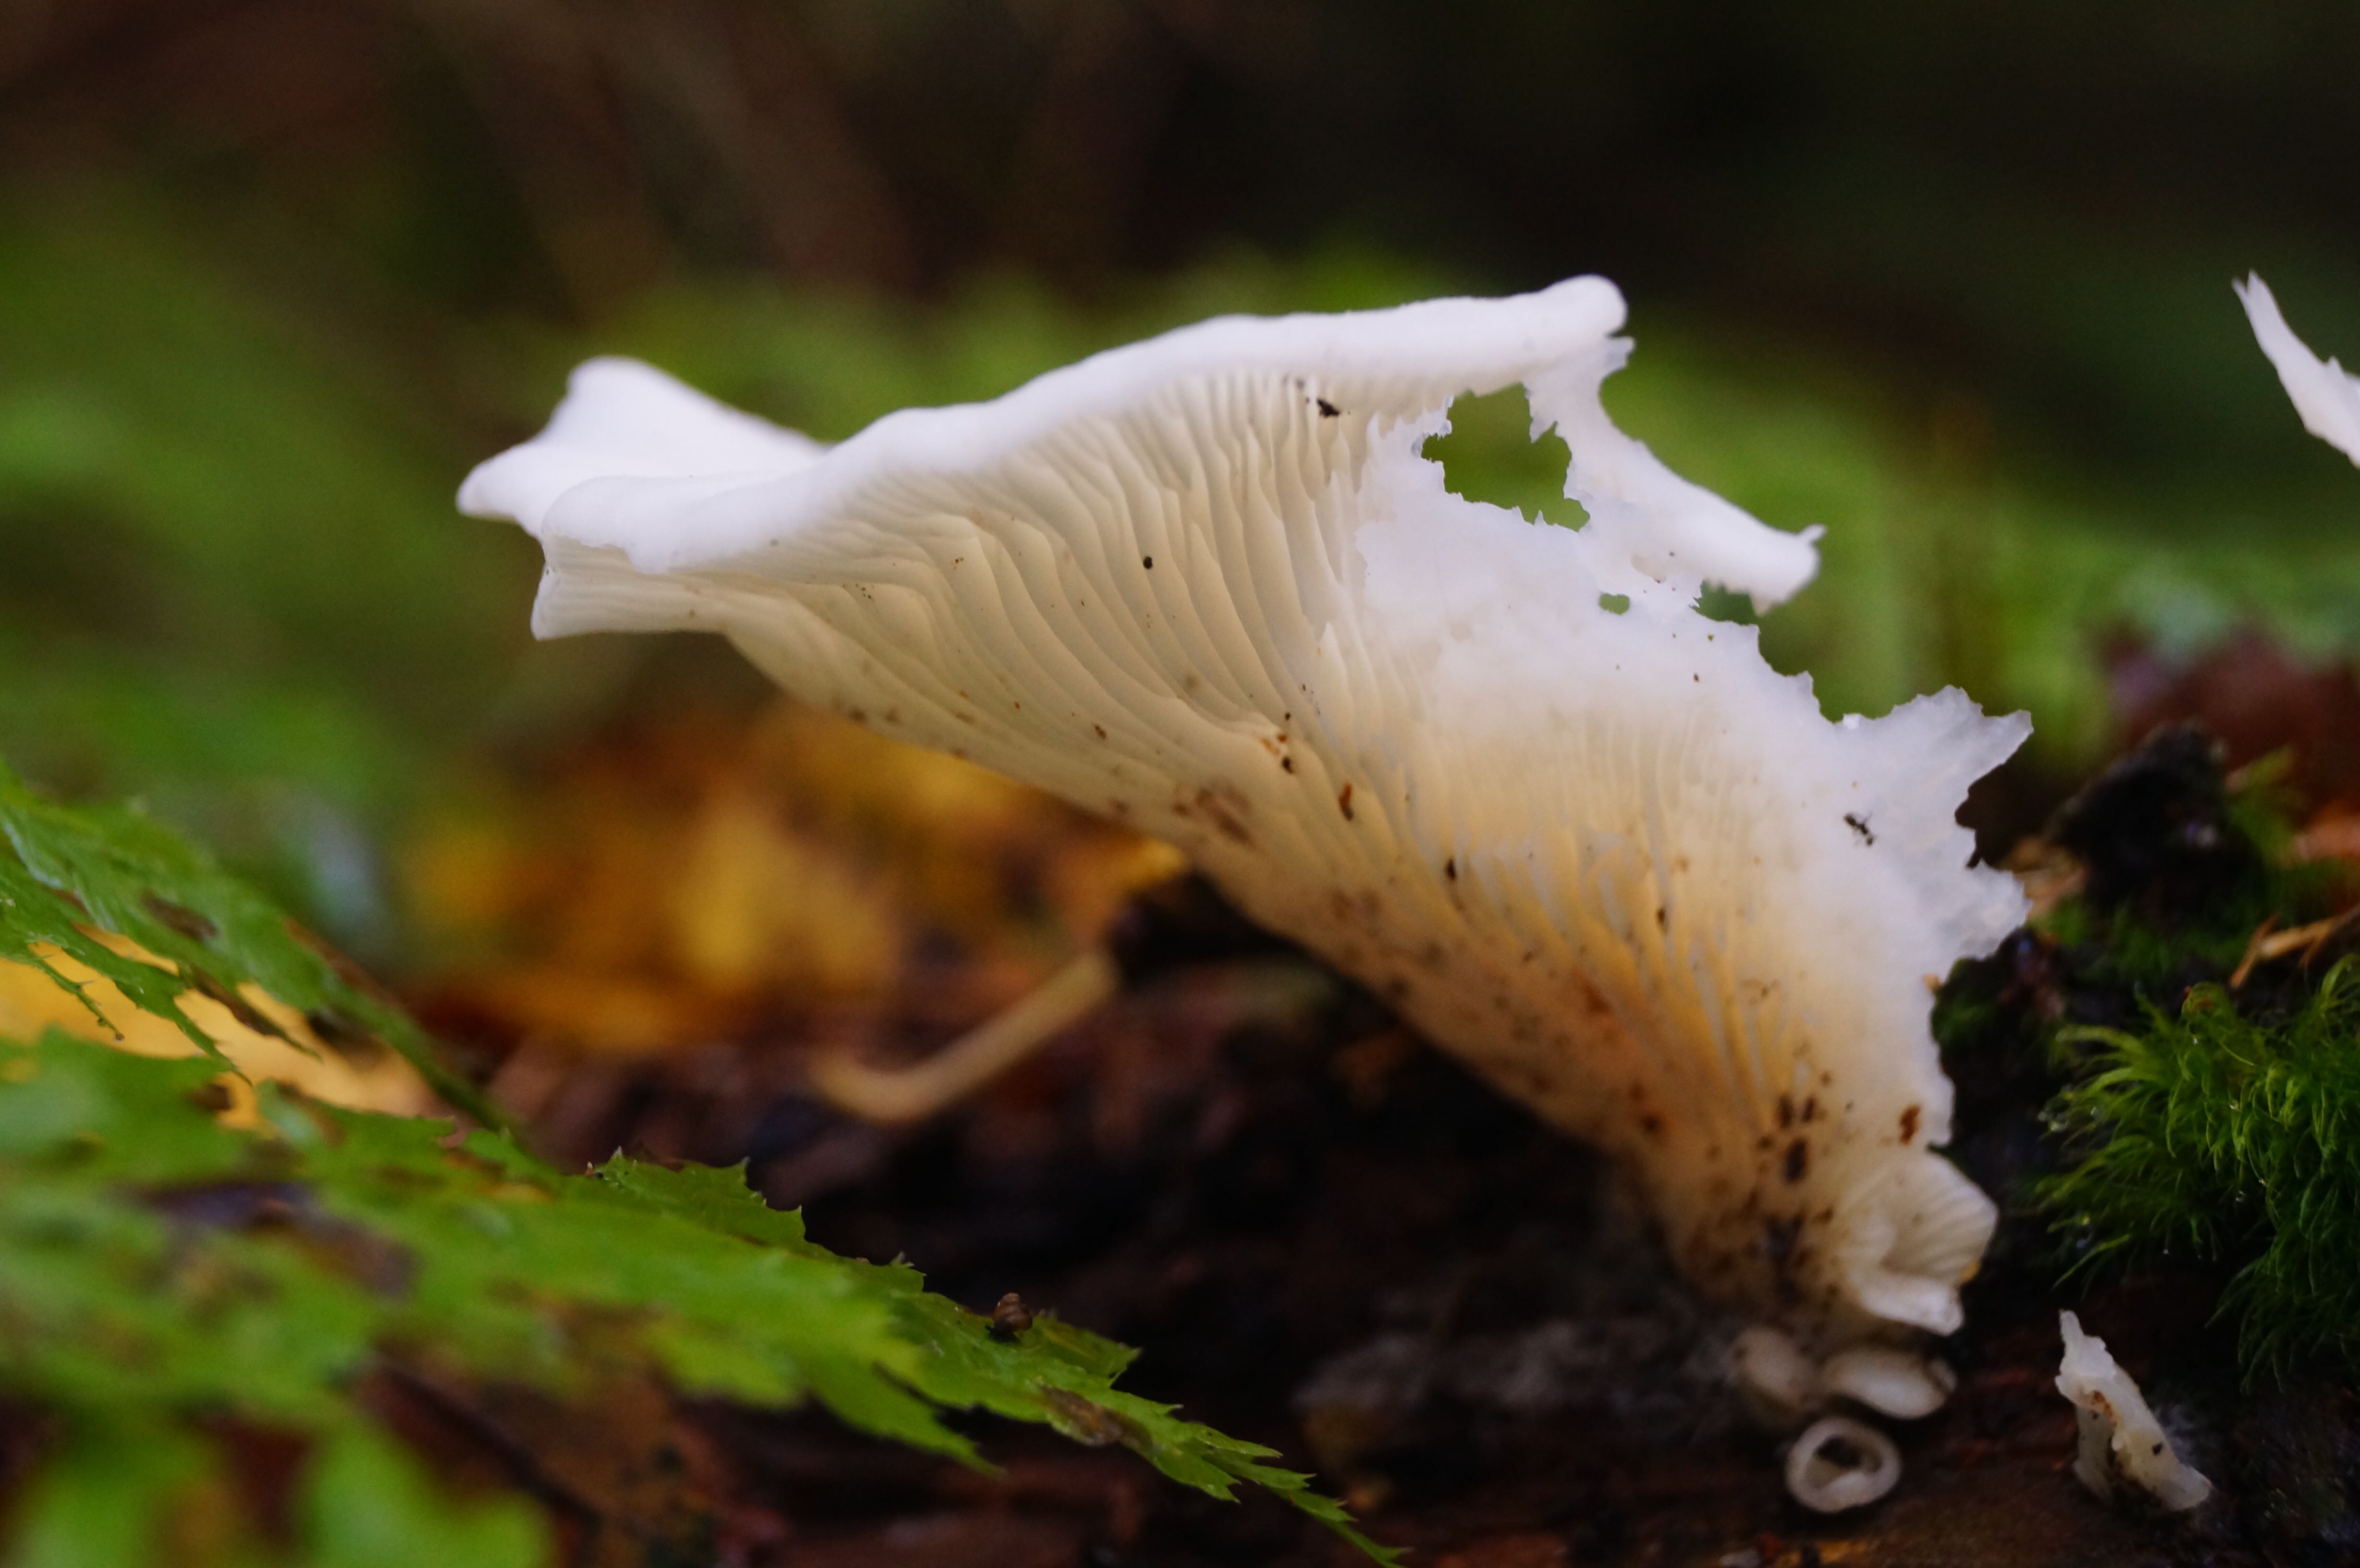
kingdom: Fungi
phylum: Basidiomycota
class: Agaricomycetes
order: Agaricales
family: Marasmiaceae
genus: Pleurocybella
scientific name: Pleurocybella porrigens
